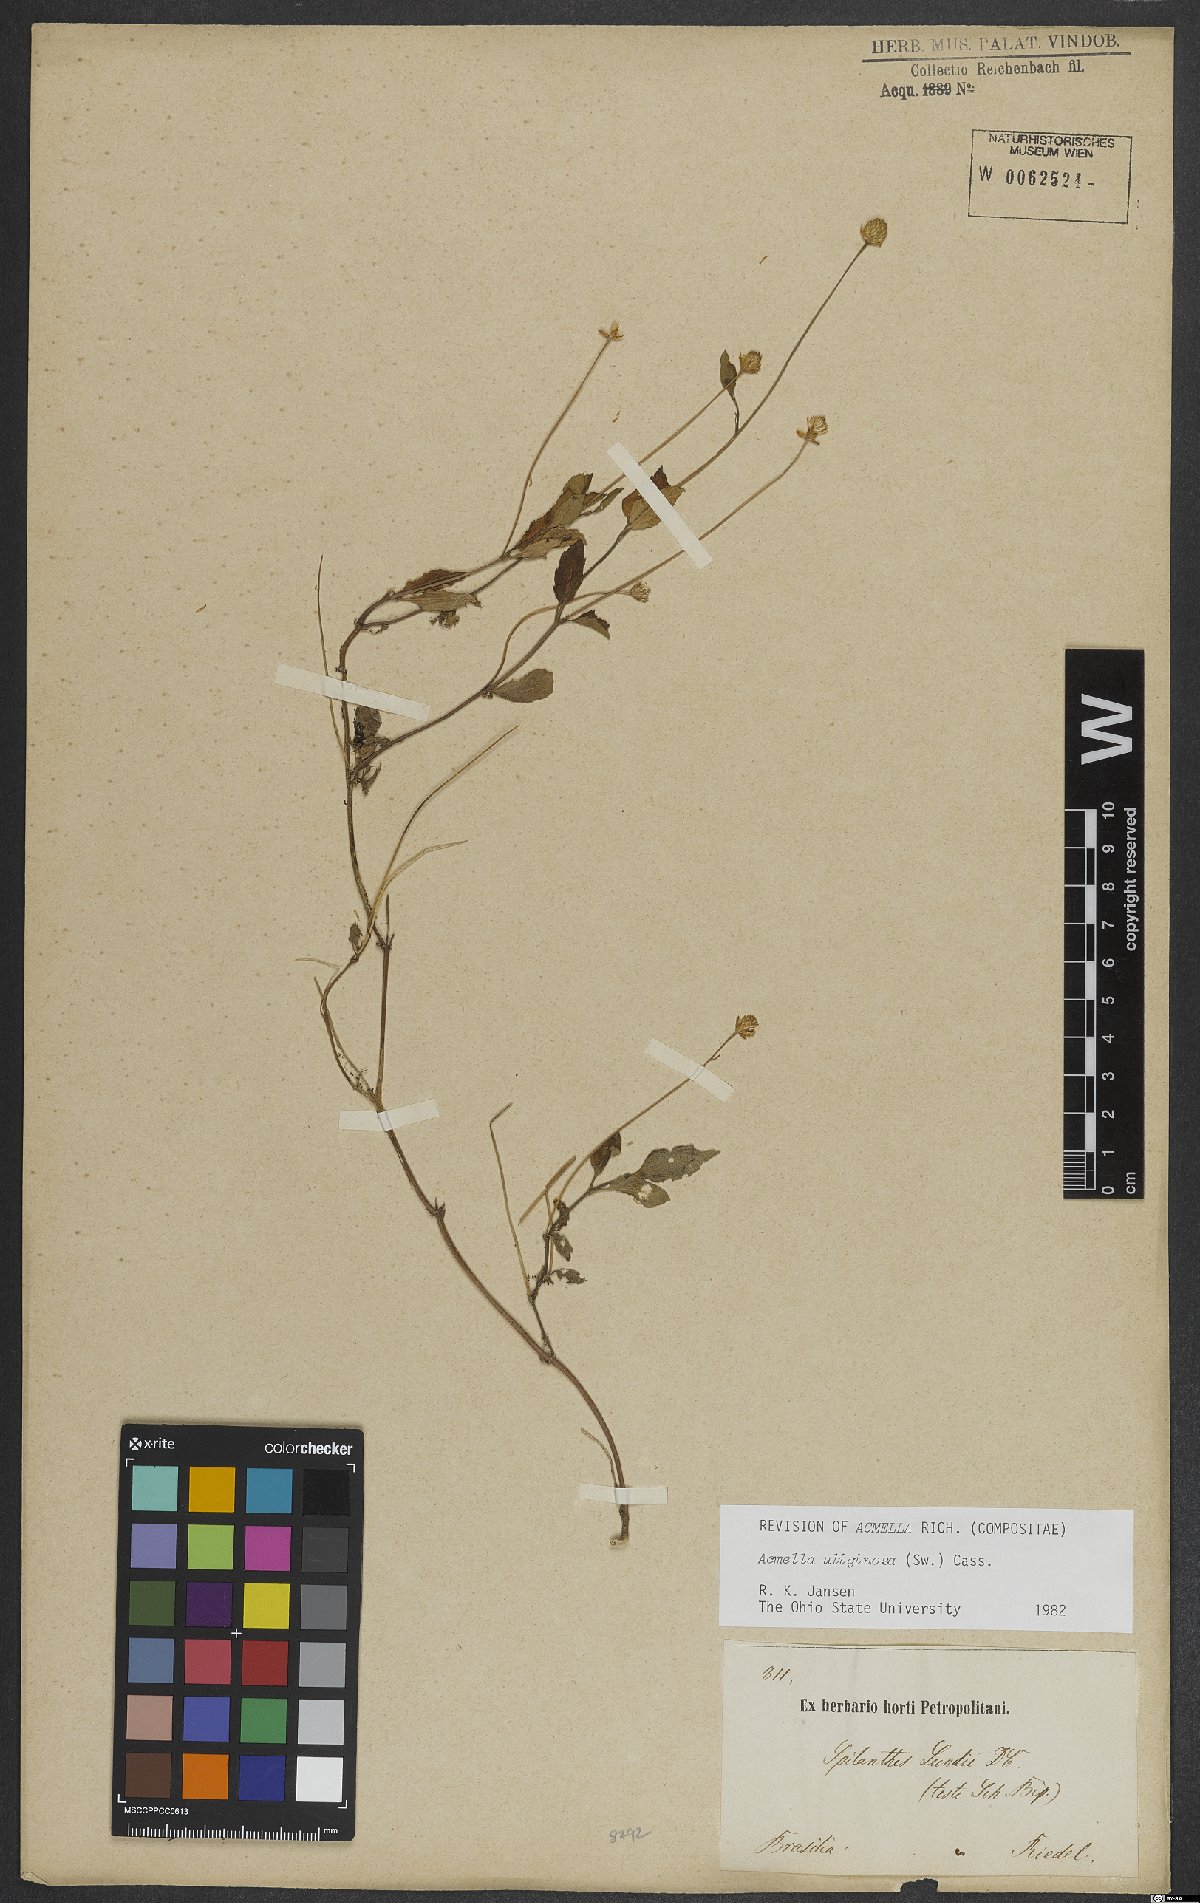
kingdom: Plantae
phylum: Tracheophyta
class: Magnoliopsida
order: Asterales
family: Asteraceae
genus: Acmella
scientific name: Acmella uliginosa
